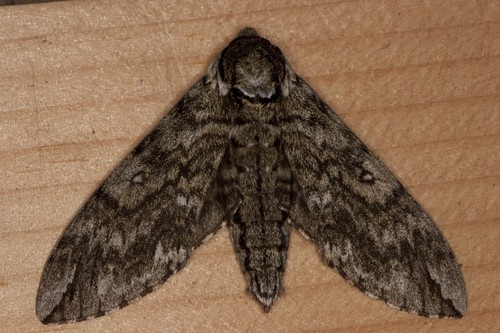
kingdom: Animalia
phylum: Arthropoda
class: Insecta
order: Lepidoptera
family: Sphingidae
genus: Ceratomia
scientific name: Ceratomia undulosa
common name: Waved sphinx
